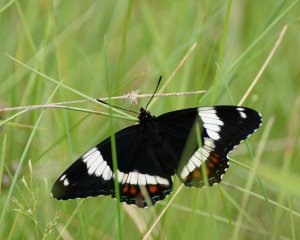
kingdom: Animalia
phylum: Arthropoda
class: Insecta
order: Lepidoptera
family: Nymphalidae
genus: Limenitis
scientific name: Limenitis arthemis
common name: Red-spotted Admiral
